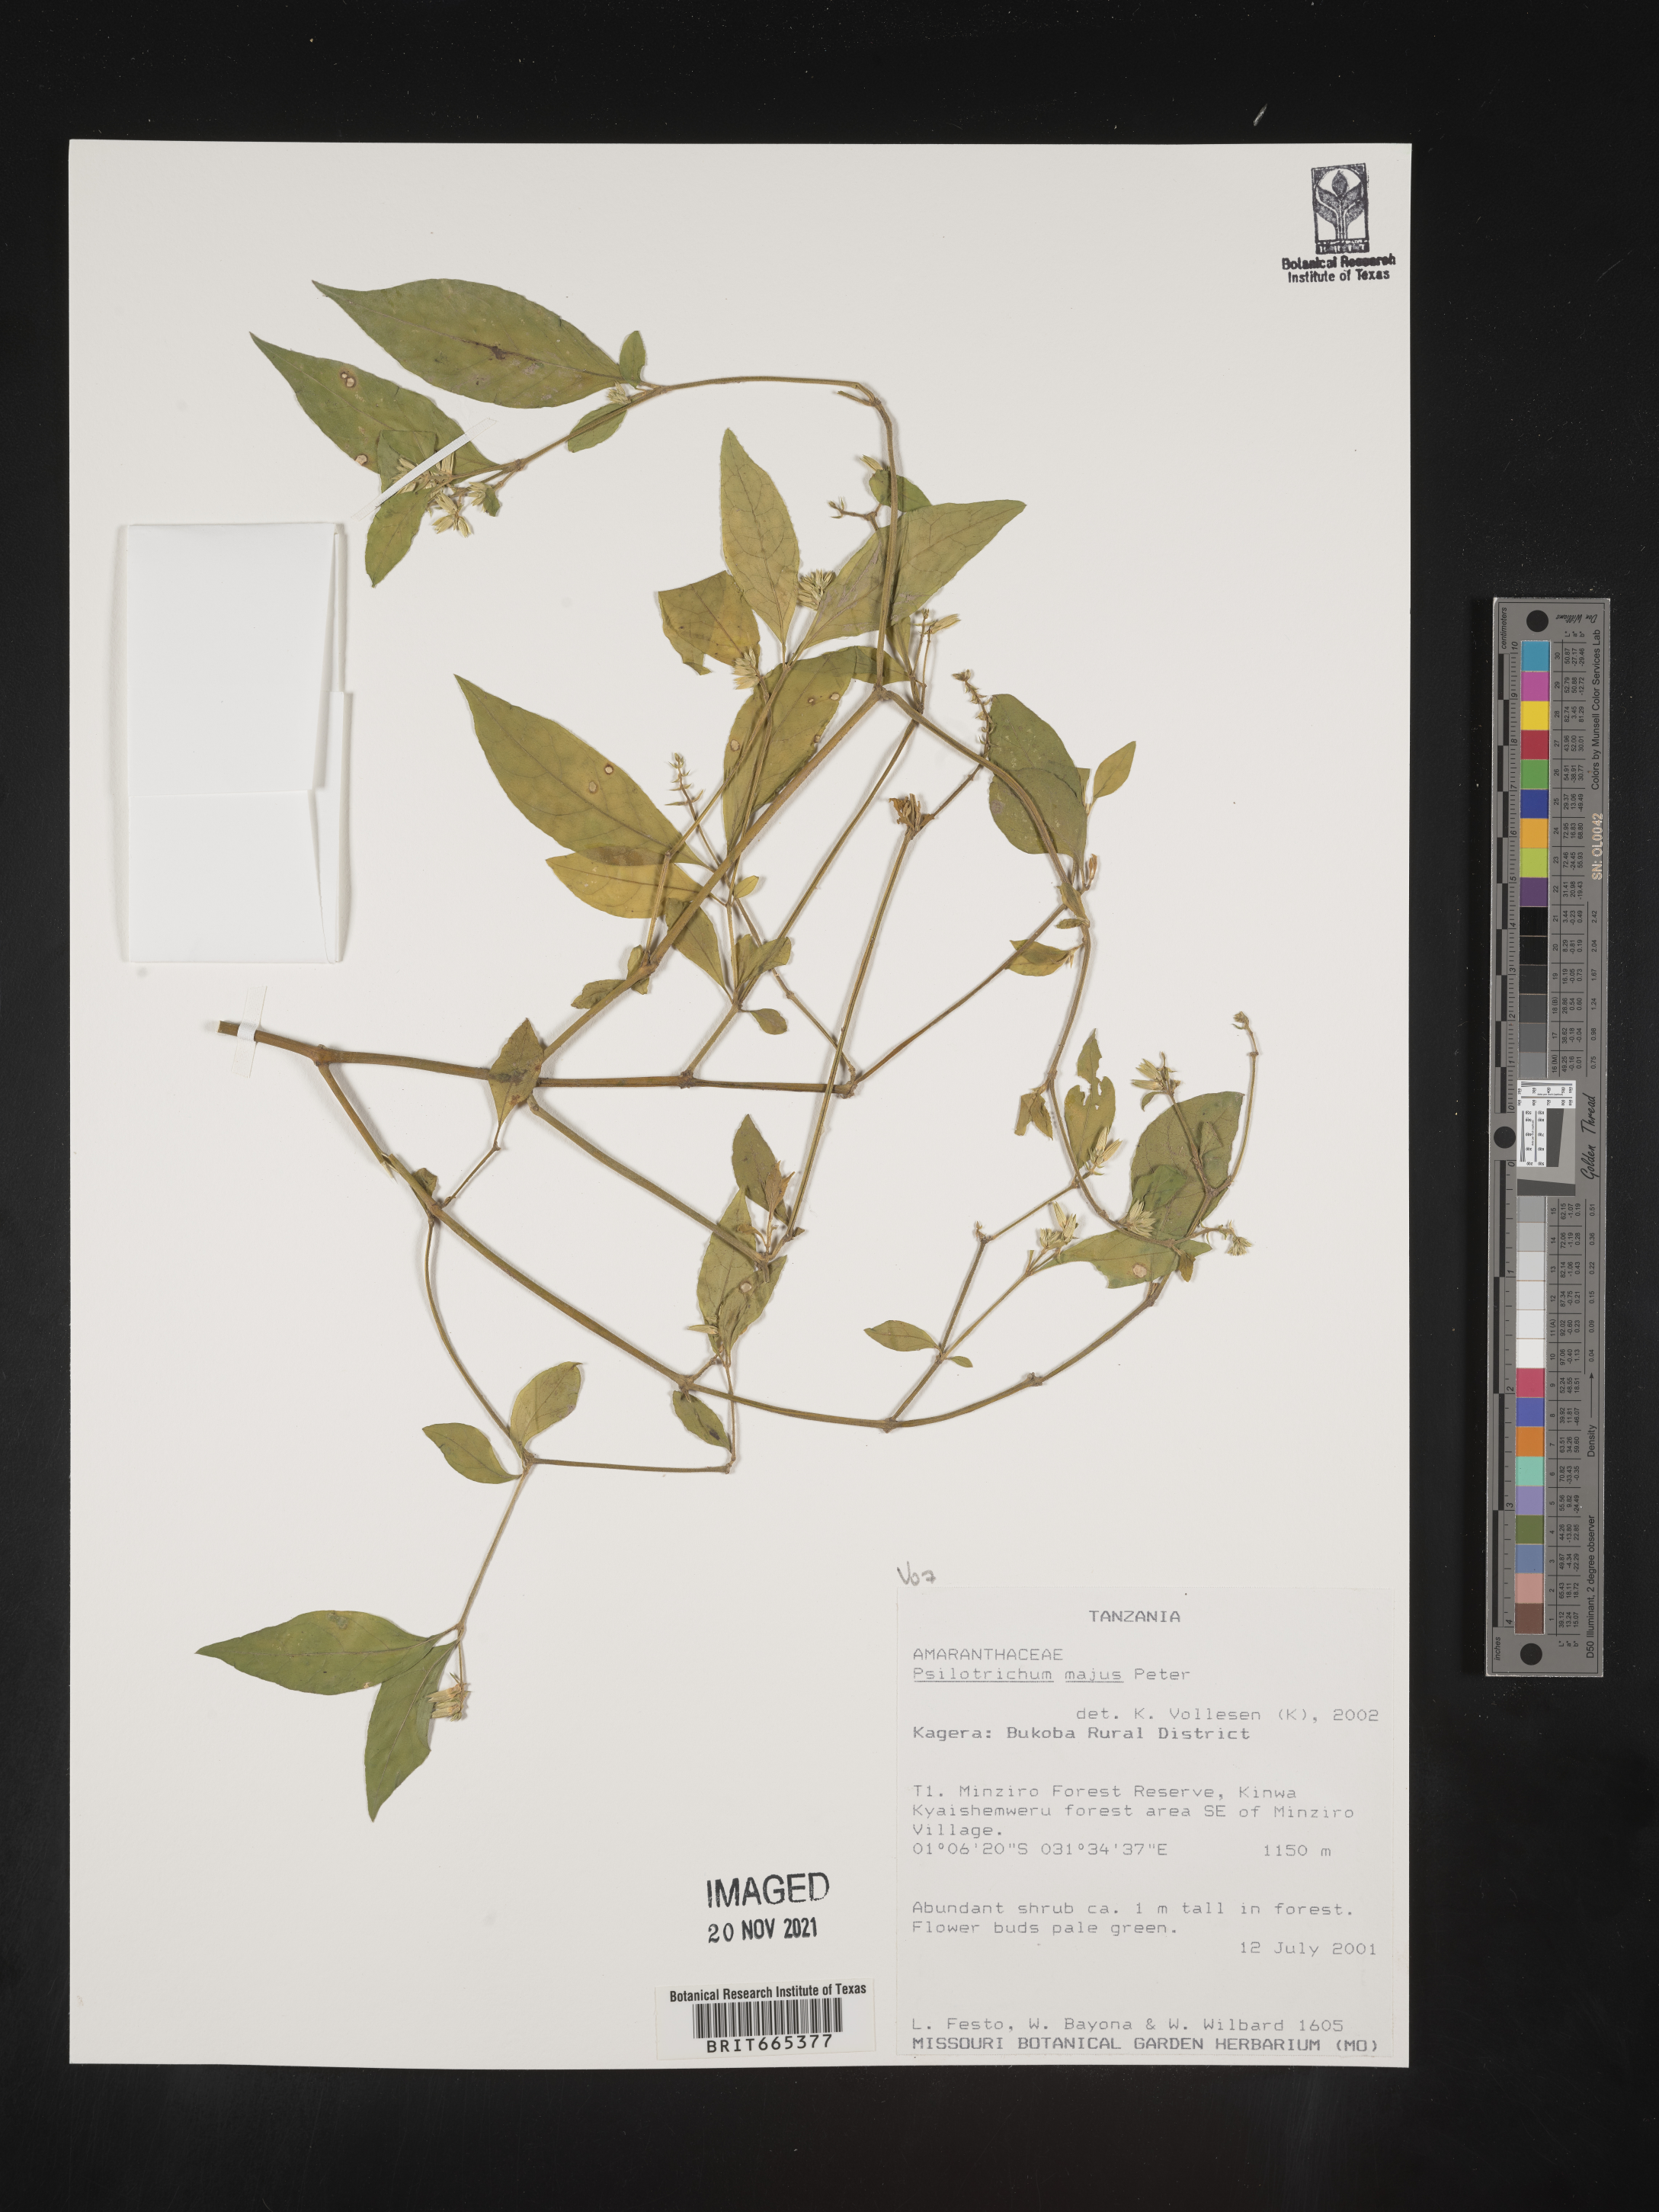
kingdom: Plantae
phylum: Tracheophyta
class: Magnoliopsida
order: Caryophyllales
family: Amaranthaceae
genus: Psilotrichum
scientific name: Psilotrichum
